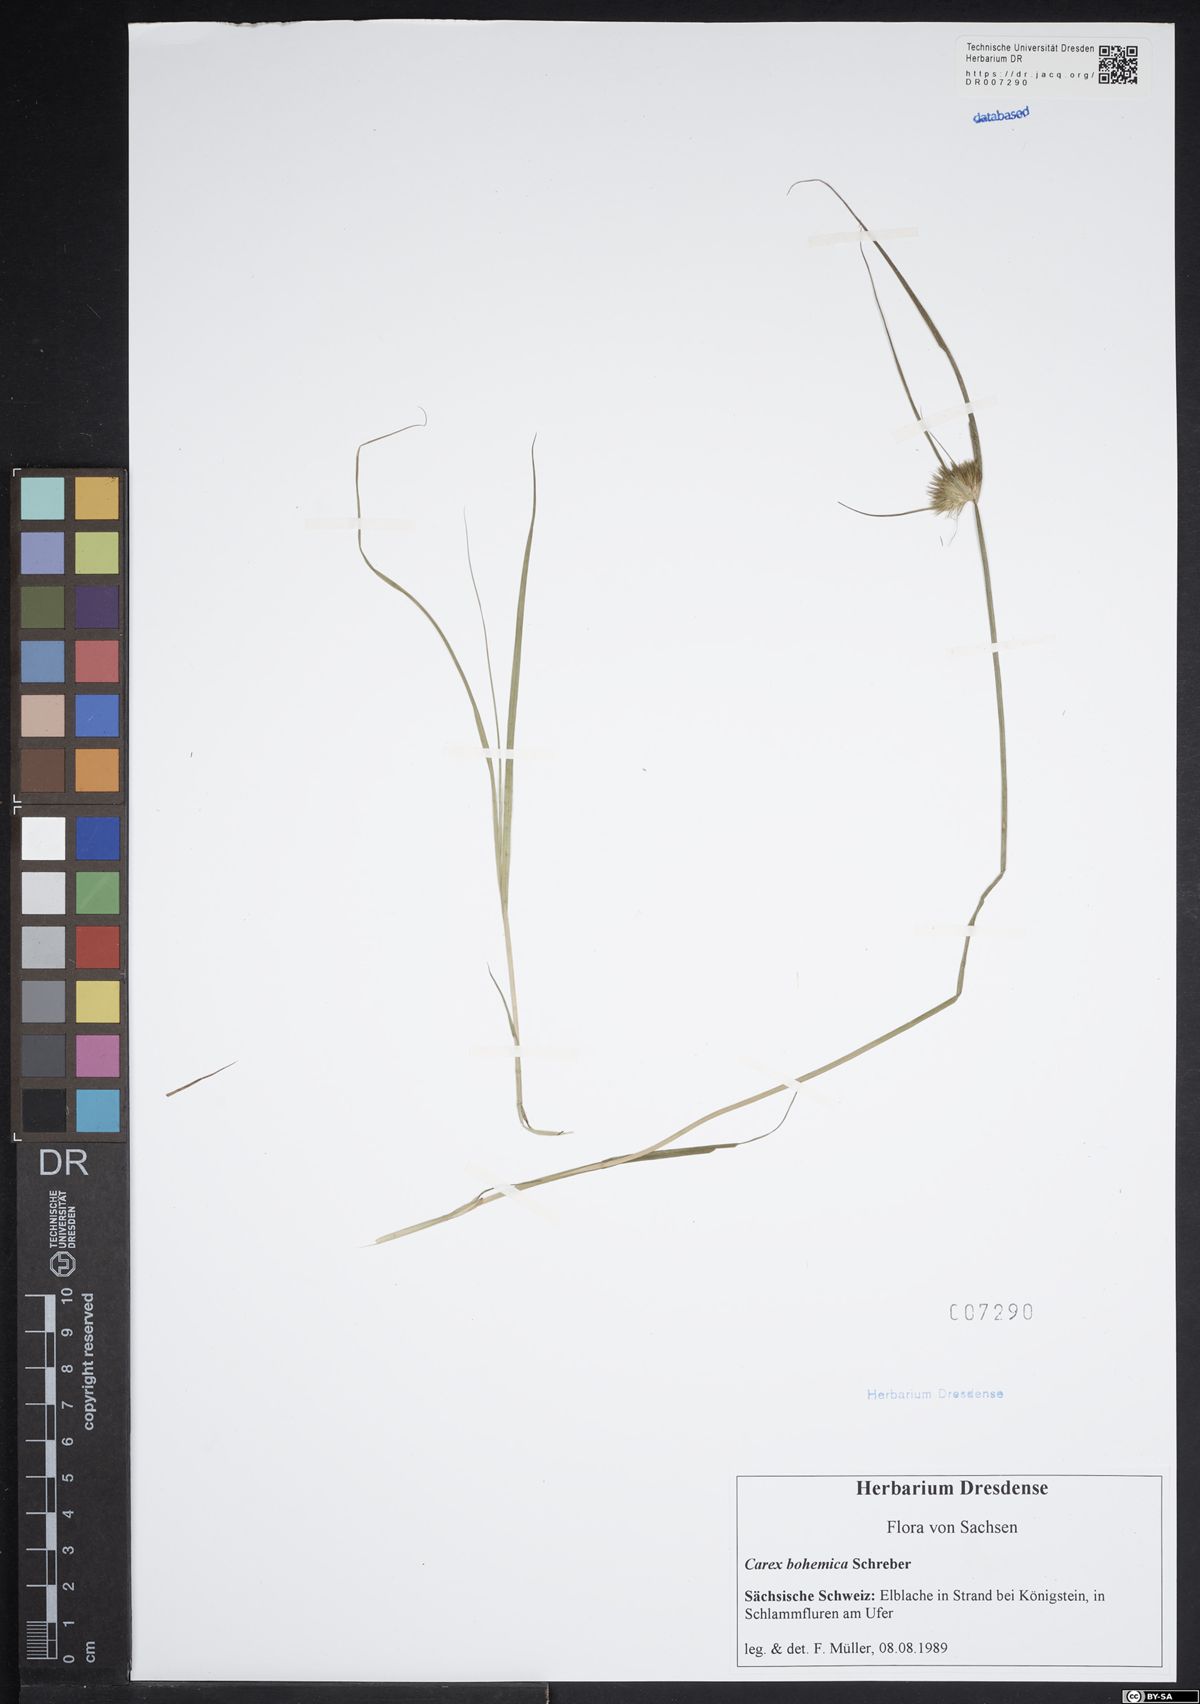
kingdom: Plantae
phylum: Tracheophyta
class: Liliopsida
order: Poales
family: Cyperaceae
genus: Carex
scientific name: Carex bohemica
